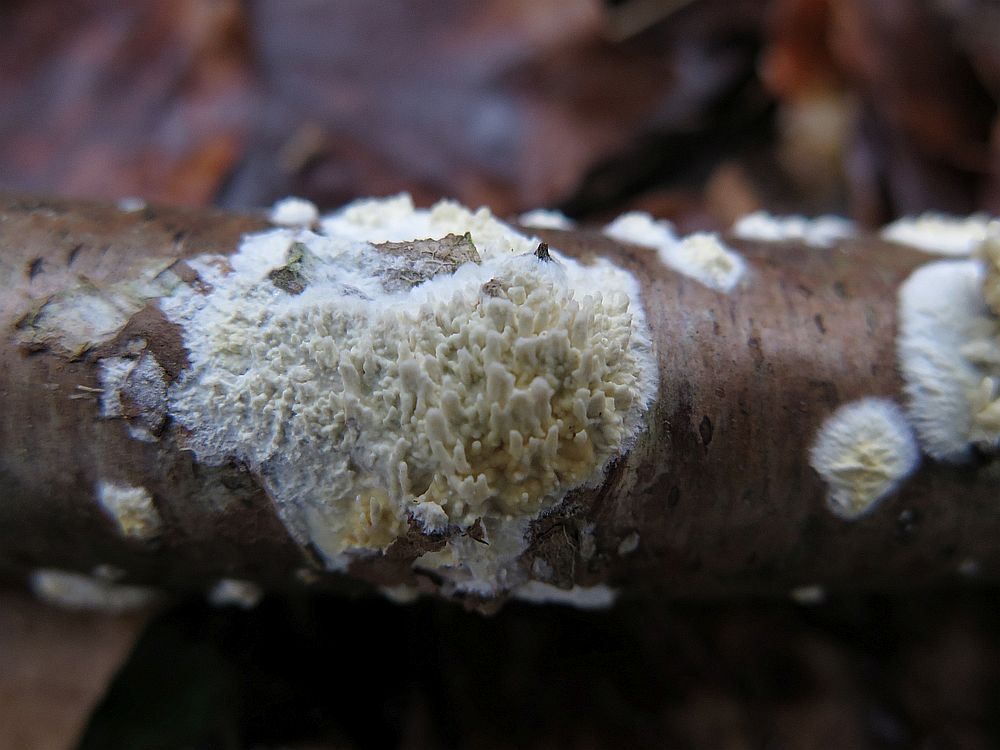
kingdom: Fungi
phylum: Basidiomycota
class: Agaricomycetes
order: Hymenochaetales
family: Schizoporaceae
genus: Xylodon
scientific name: Xylodon radula
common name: grovtandet kalkskind
